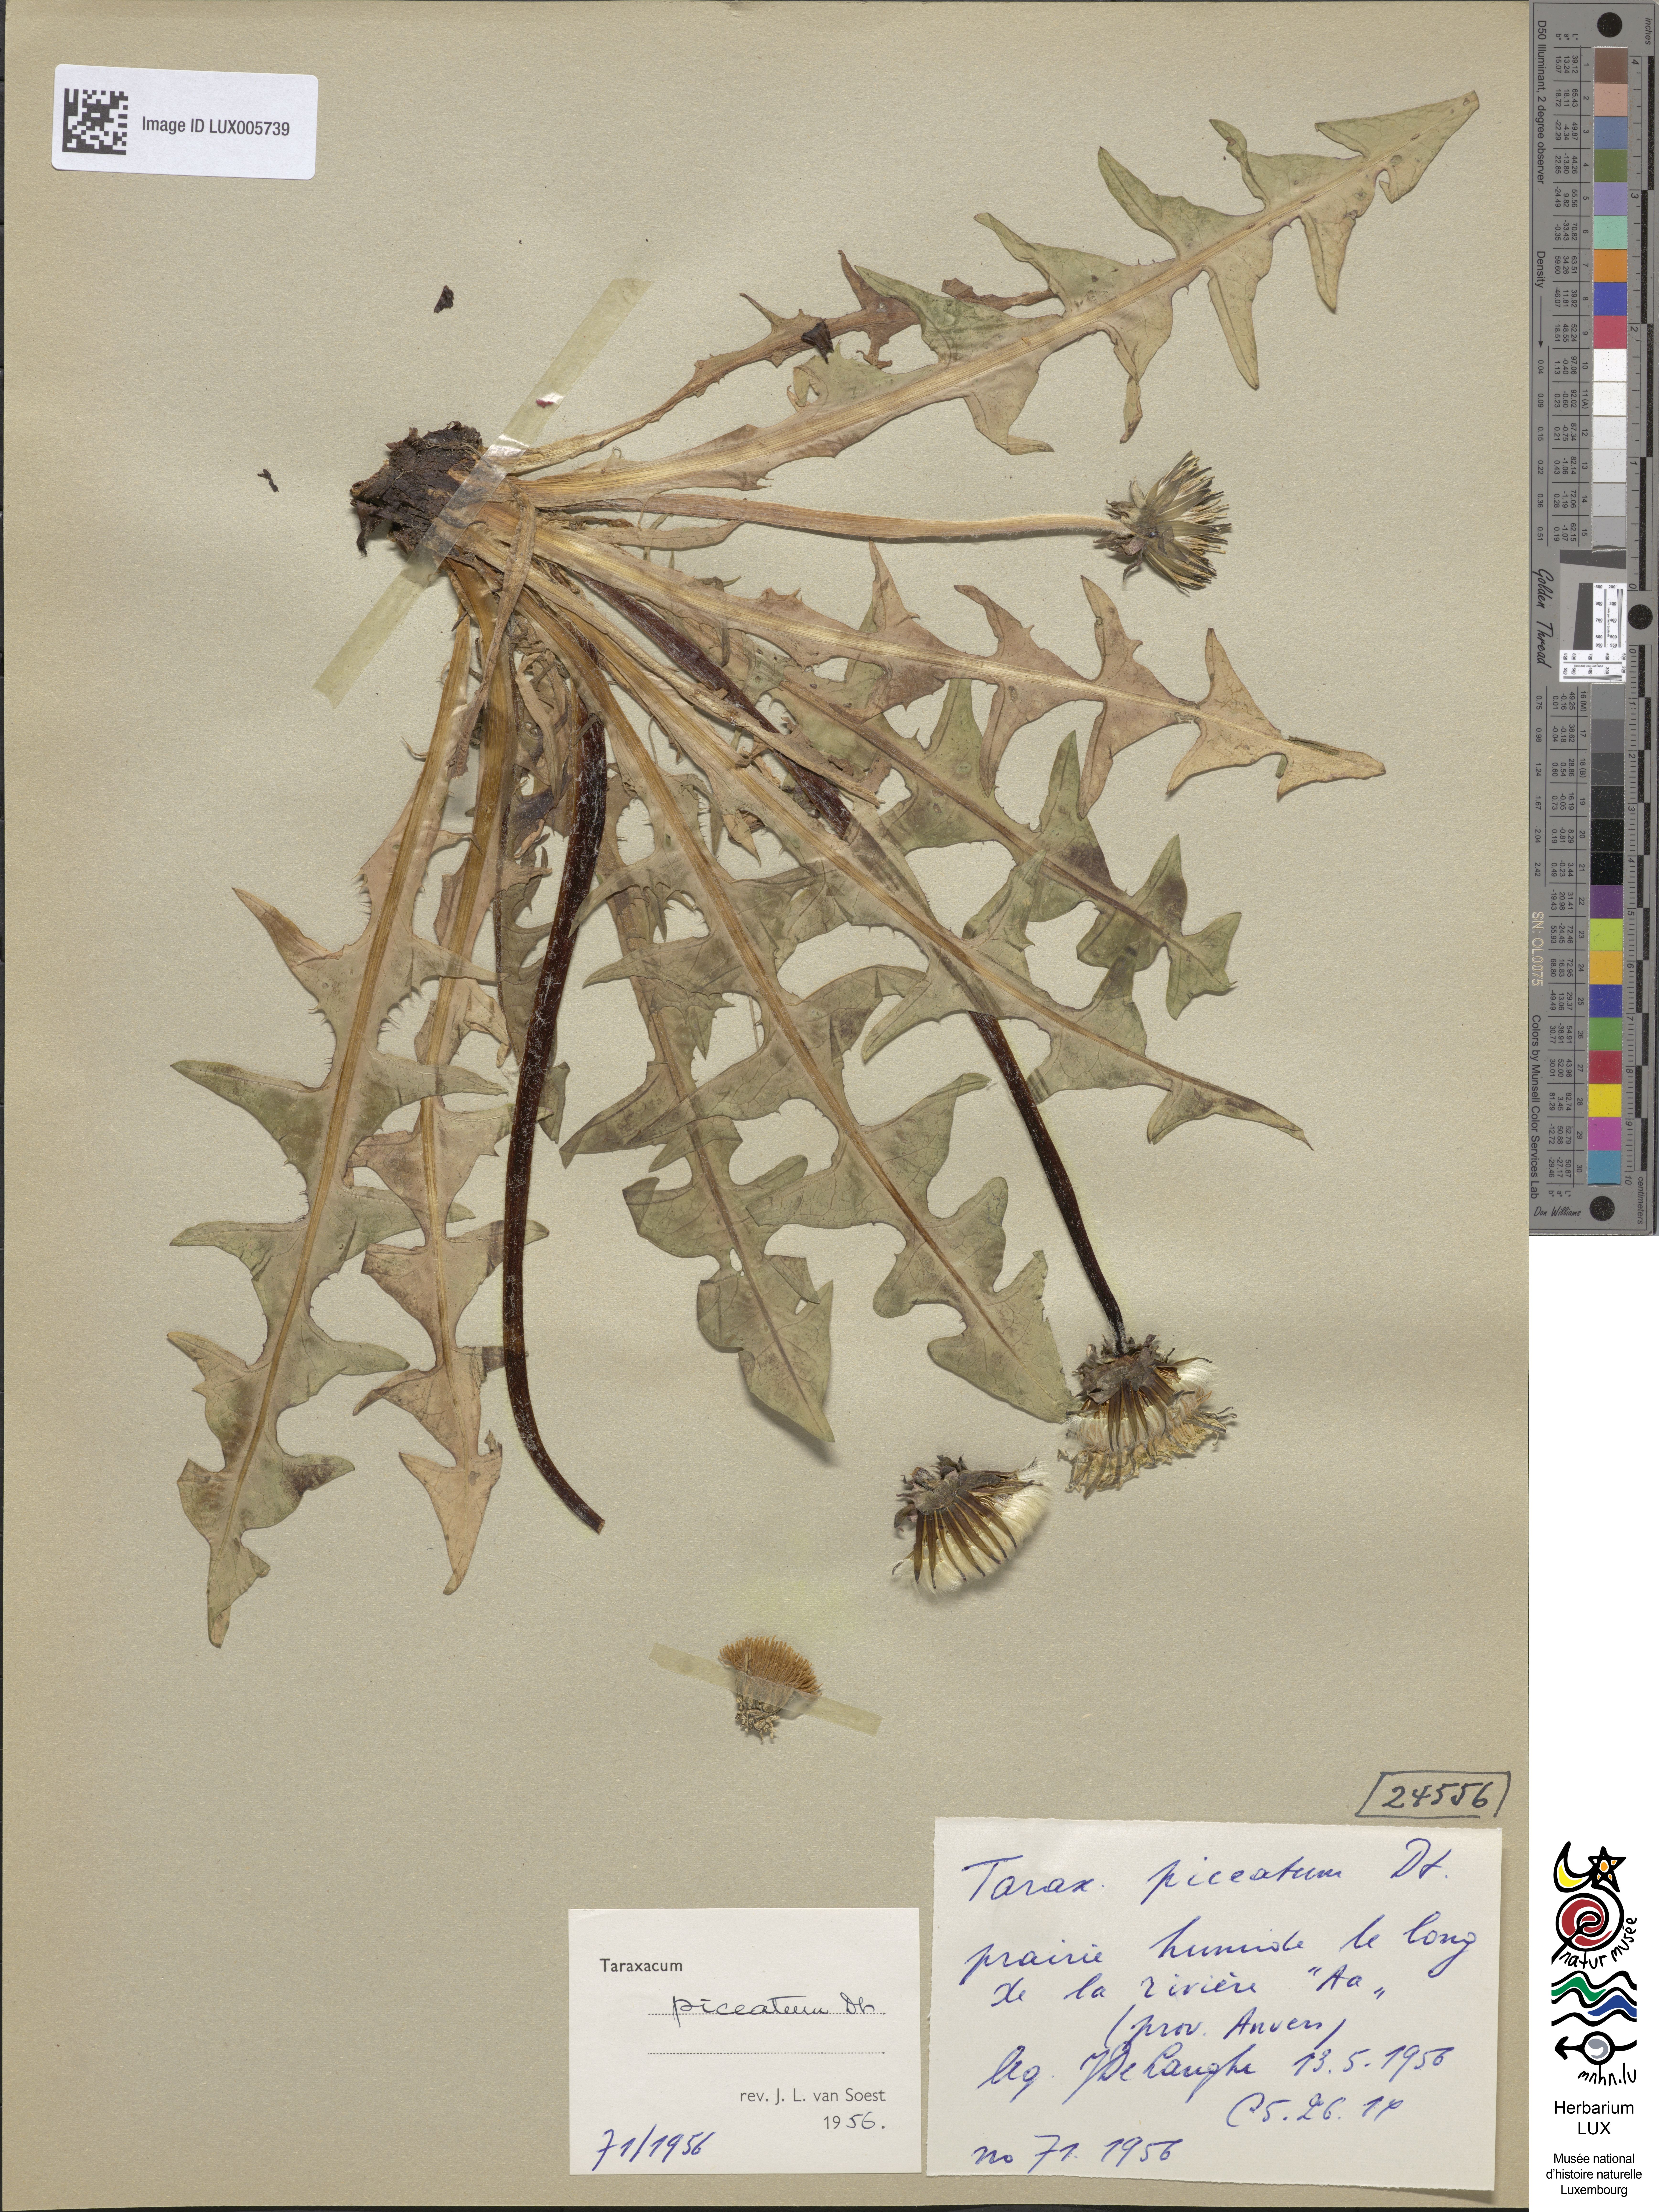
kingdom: Plantae
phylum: Tracheophyta
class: Magnoliopsida
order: Asterales
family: Asteraceae
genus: Taraxacum
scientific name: Taraxacum piceatum
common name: Leaden-bracted dandelion
